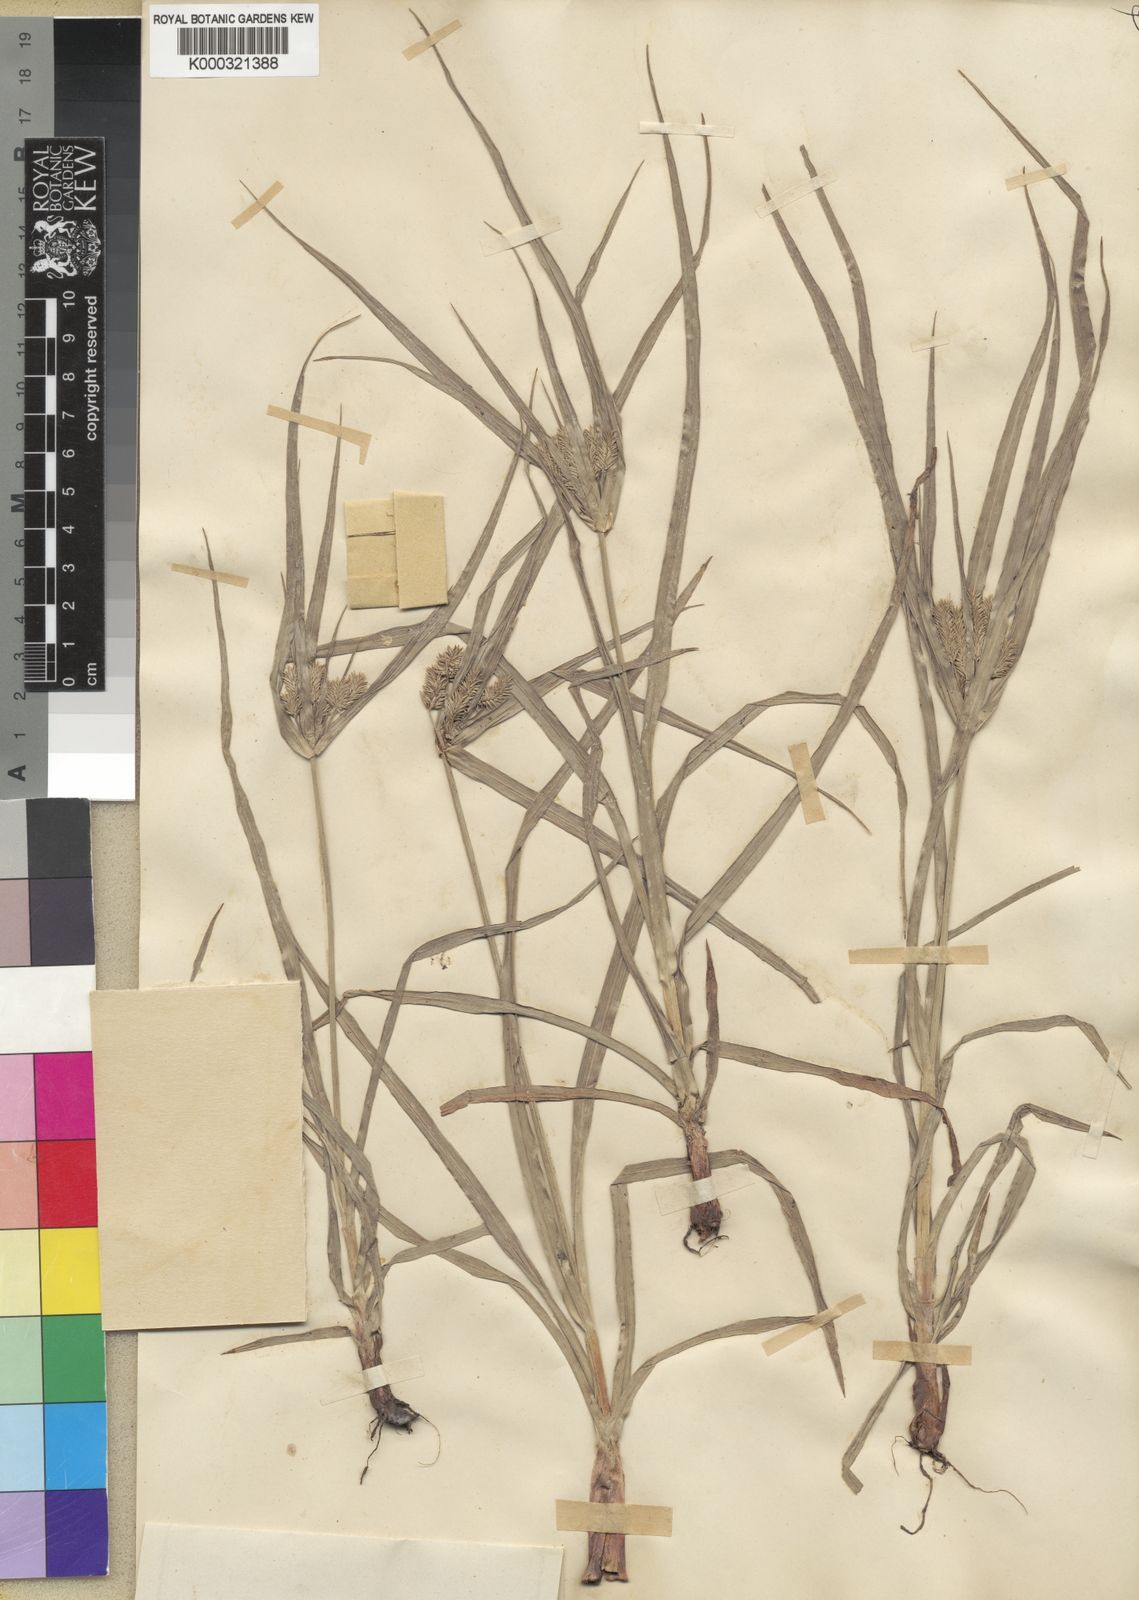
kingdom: Plantae
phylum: Tracheophyta
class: Liliopsida
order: Poales
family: Cyperaceae
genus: Cyperus
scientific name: Cyperus cyperoides
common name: Pacific island flat sedge
